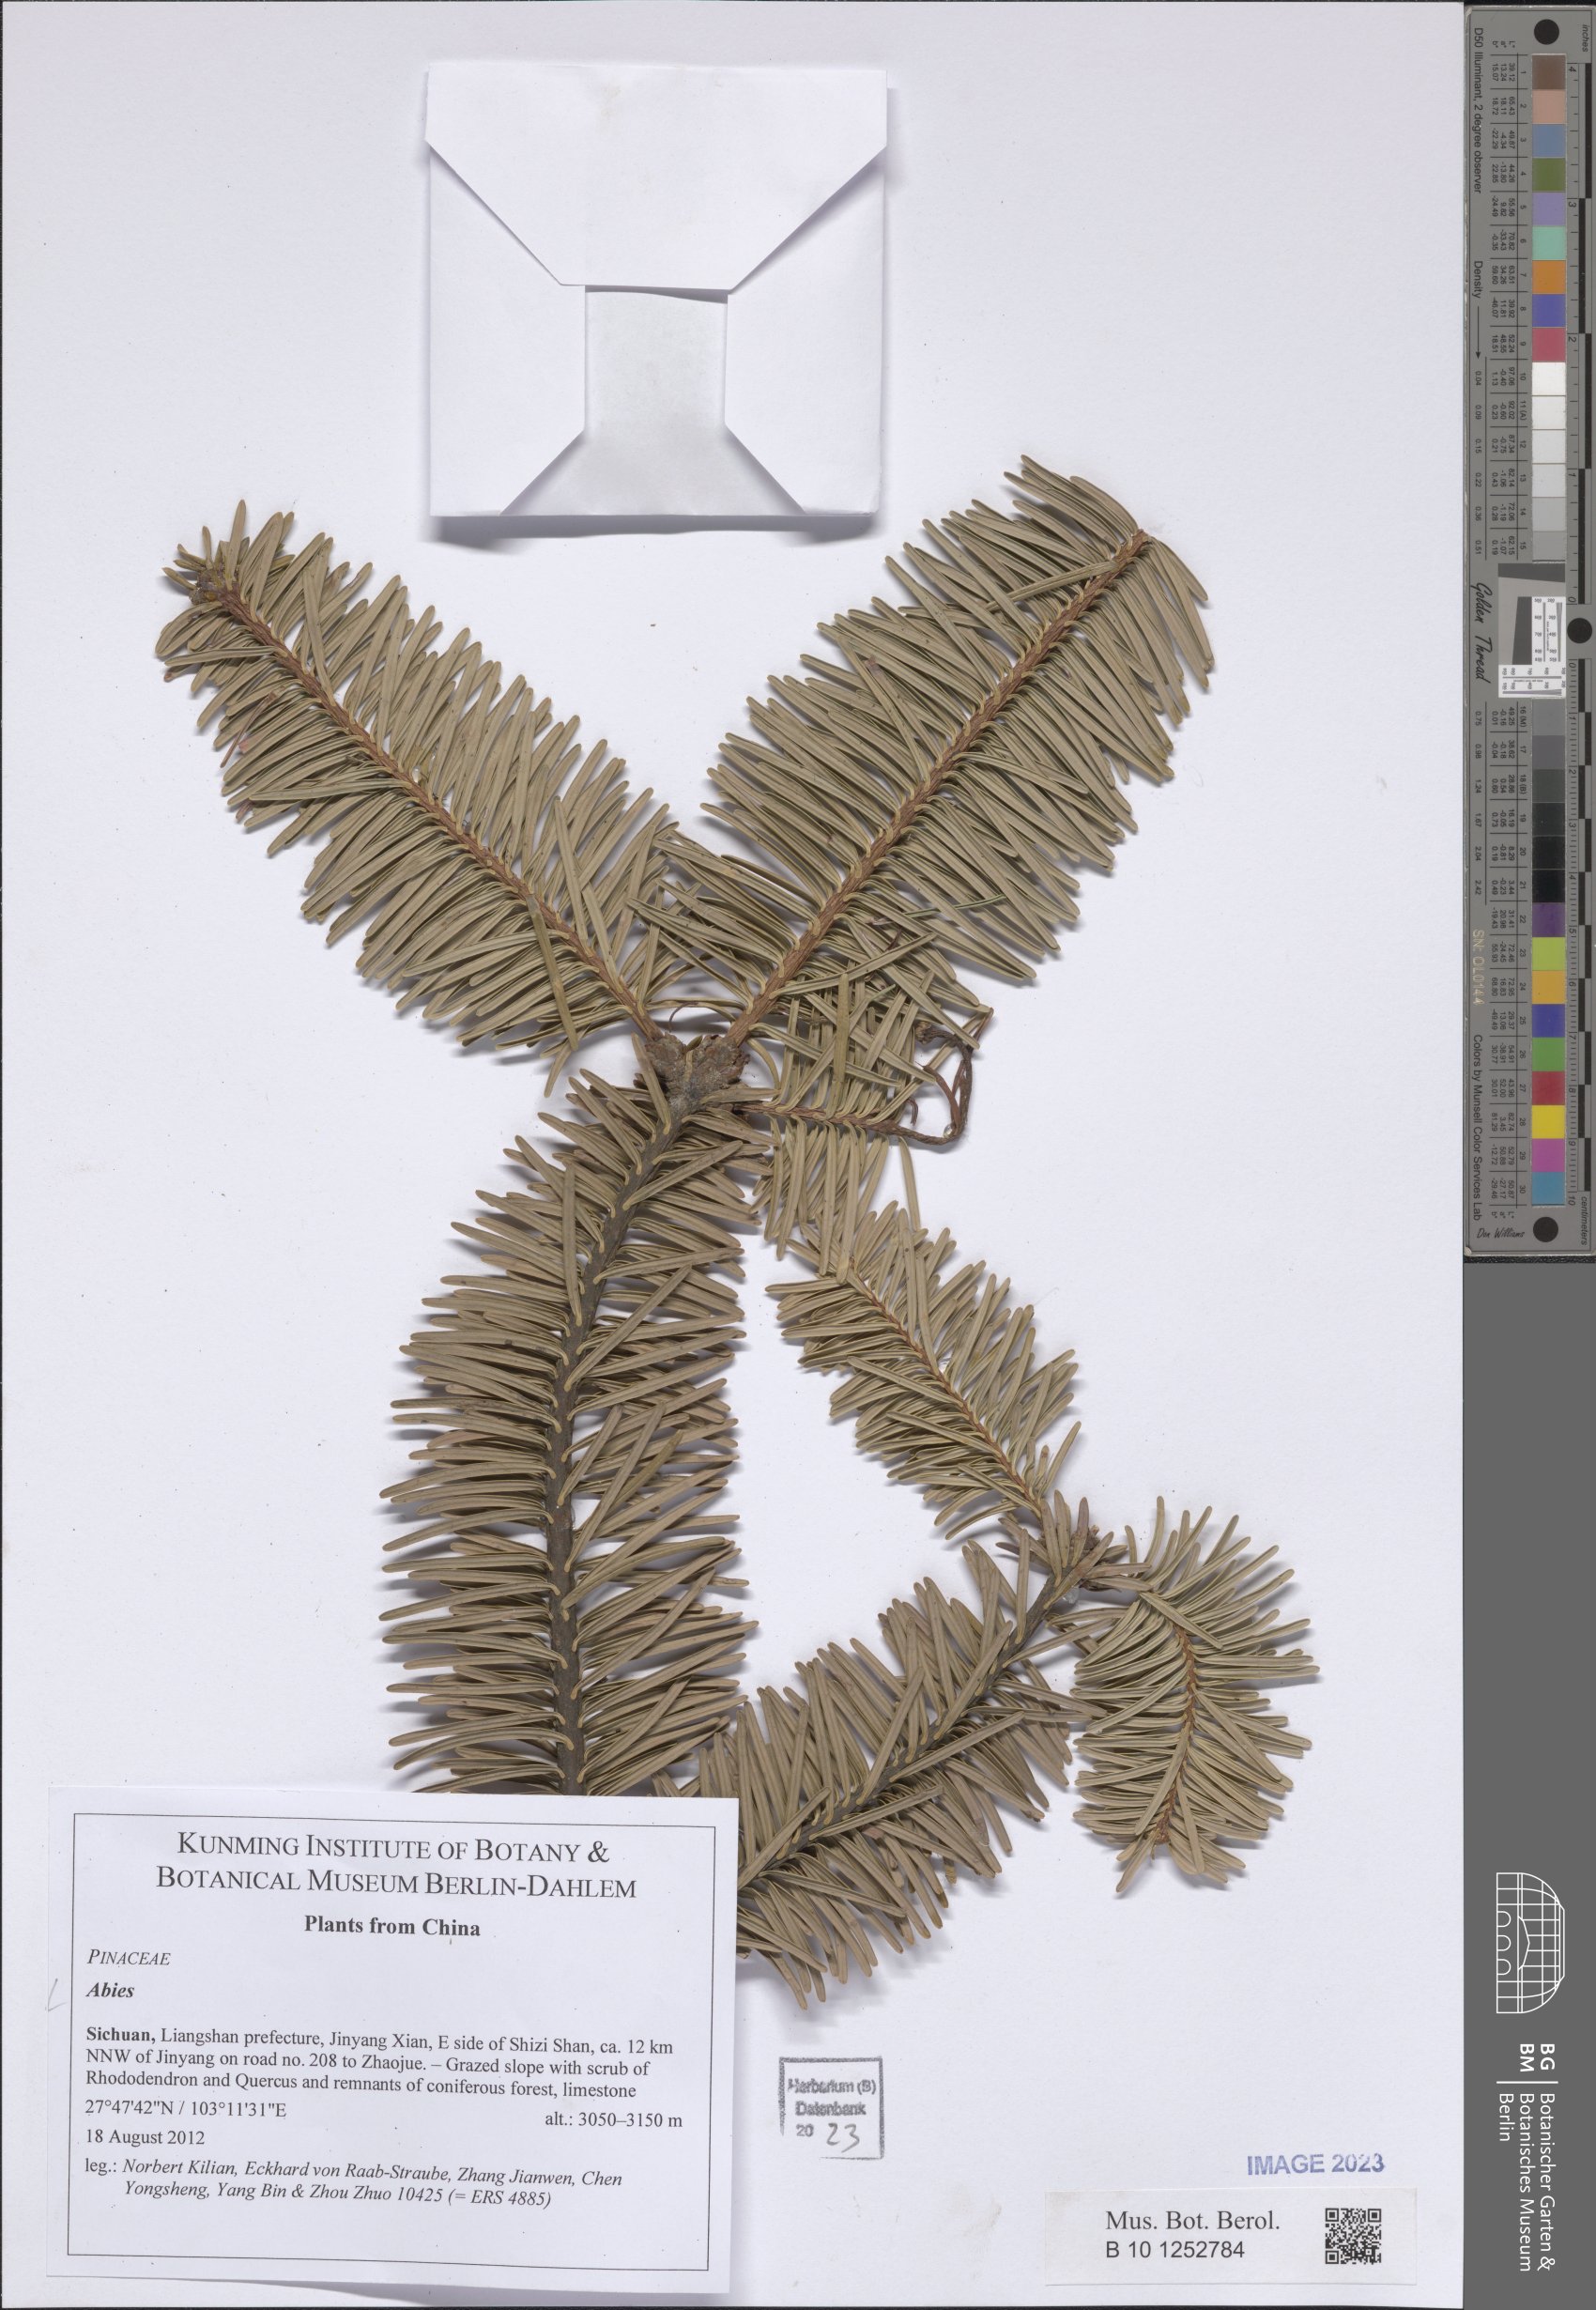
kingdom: Plantae
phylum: Tracheophyta
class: Pinopsida
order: Pinales
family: Pinaceae
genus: Abies
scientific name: Abies
